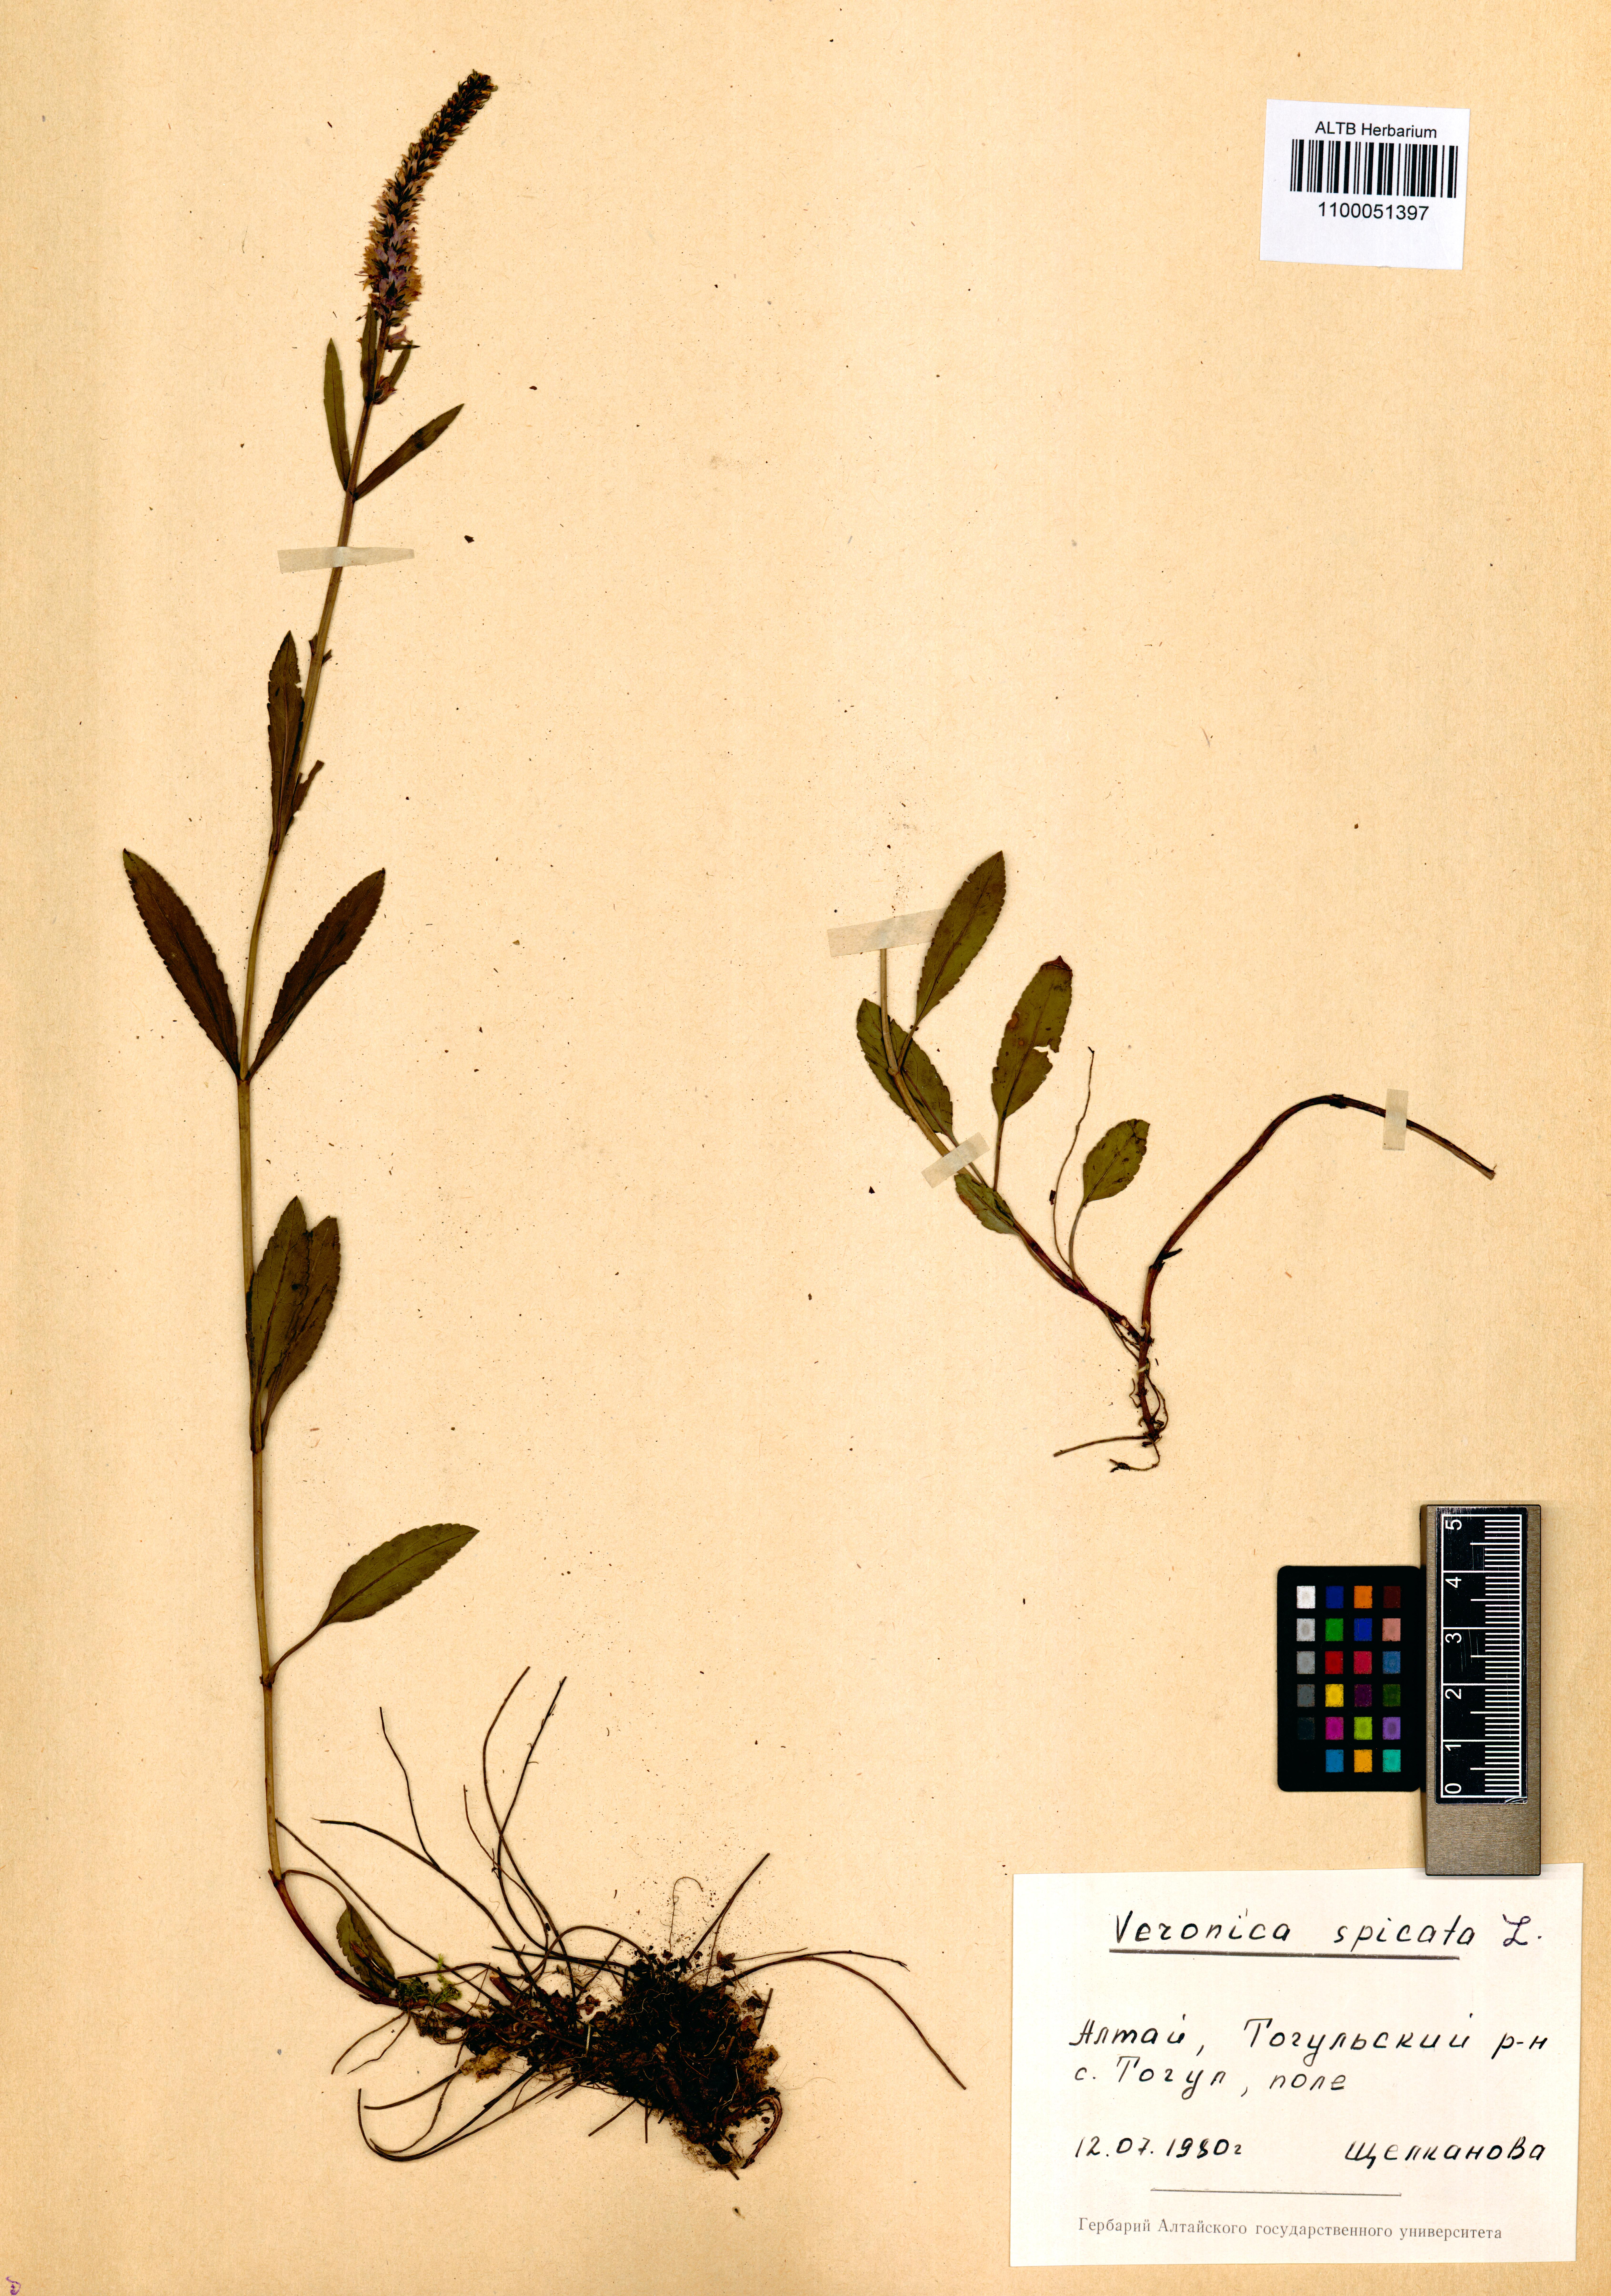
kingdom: Plantae
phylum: Tracheophyta
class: Magnoliopsida
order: Lamiales
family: Plantaginaceae
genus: Veronica
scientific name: Veronica spicata
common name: Spiked speedwell
